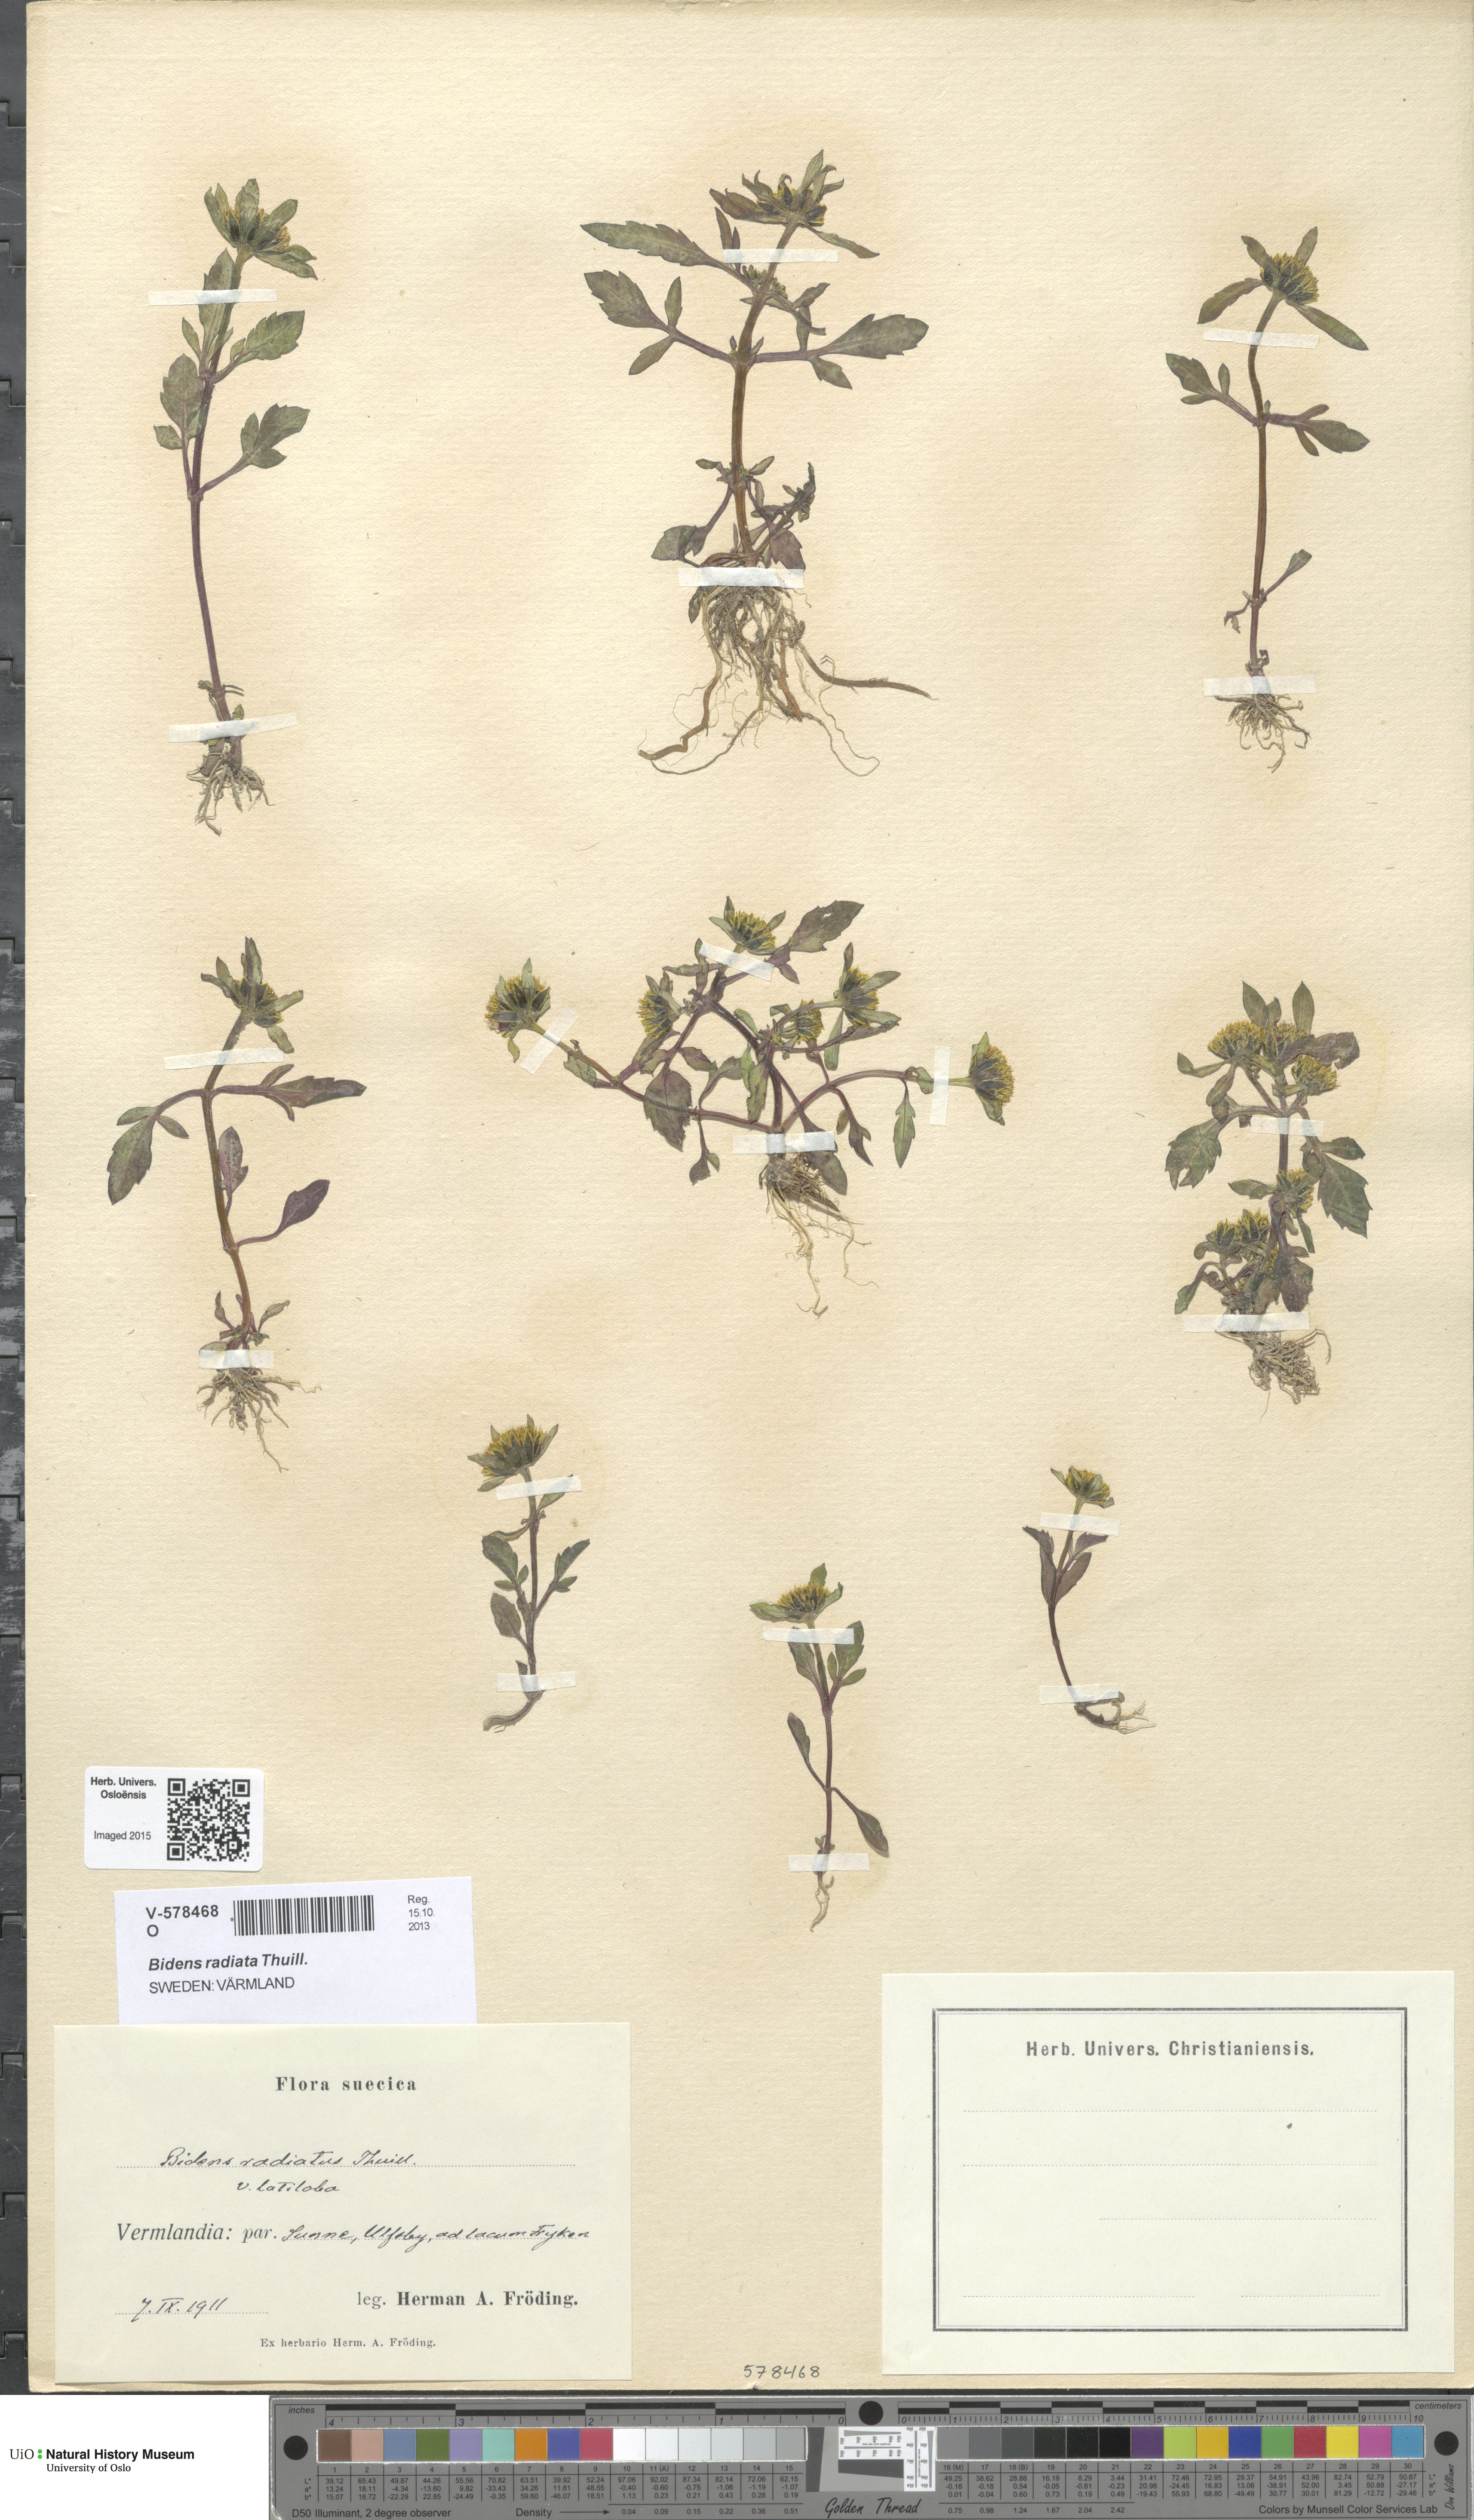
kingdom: Plantae
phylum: Tracheophyta
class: Magnoliopsida
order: Asterales
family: Asteraceae
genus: Bidens
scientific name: Bidens radiata
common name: Radiating bur-marigold
